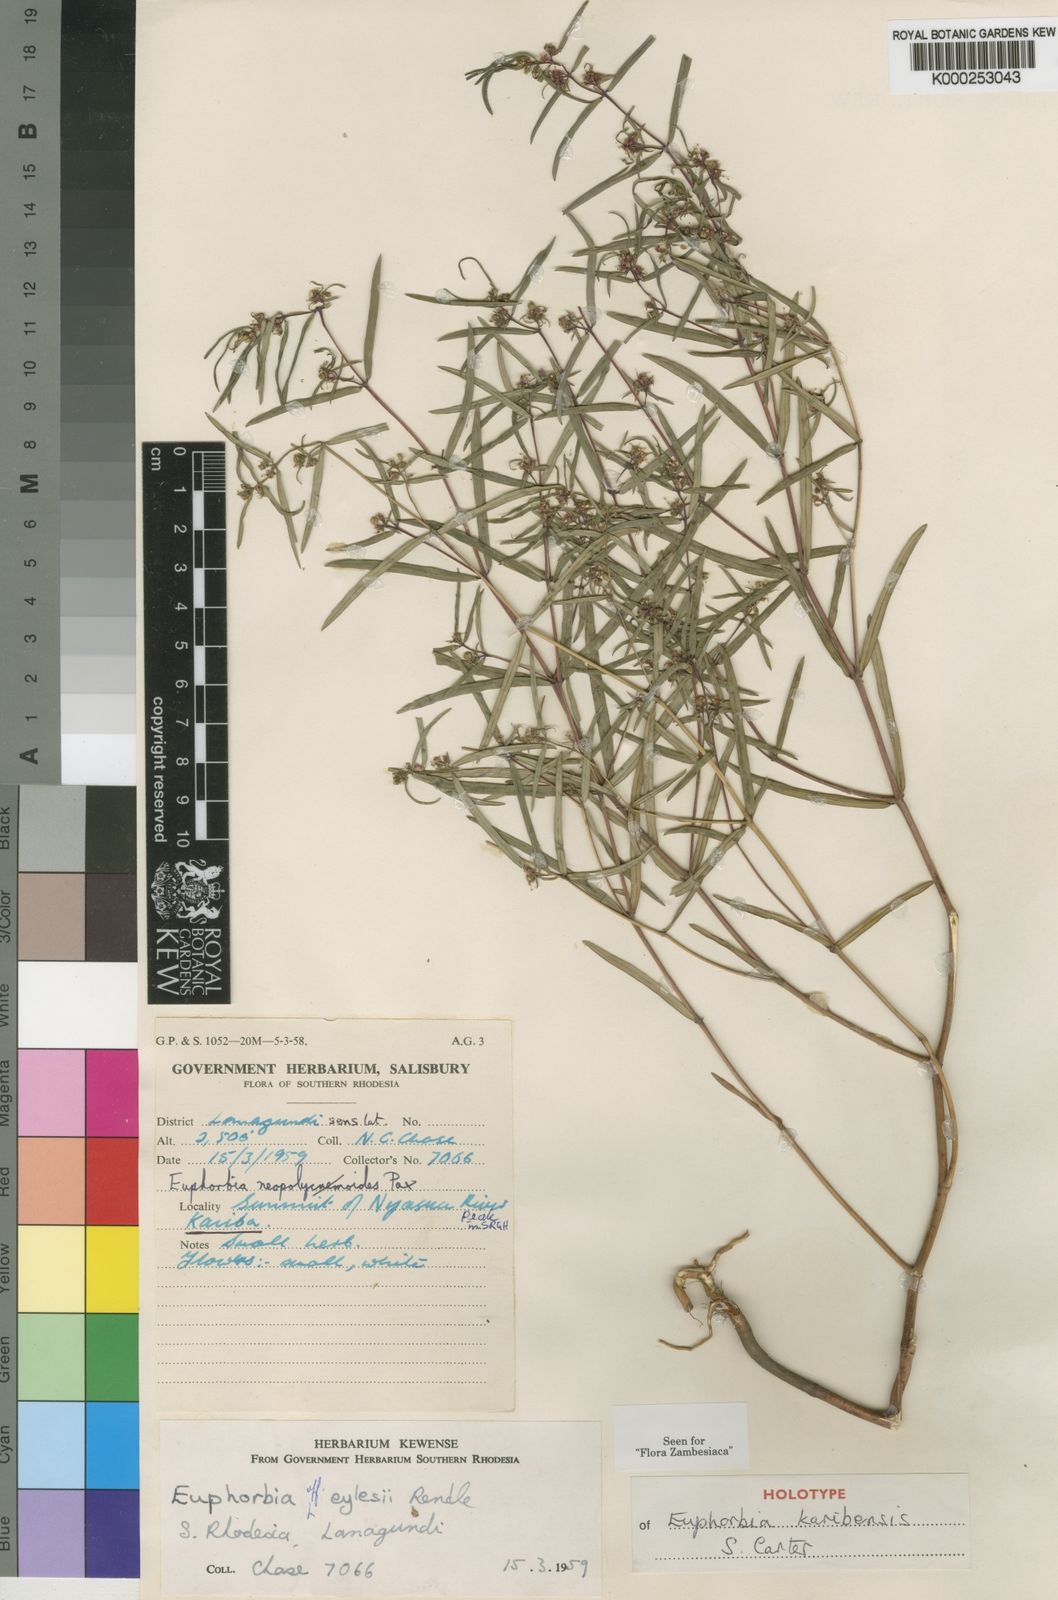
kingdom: Plantae
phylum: Tracheophyta
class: Magnoliopsida
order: Malpighiales
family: Euphorbiaceae
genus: Euphorbia
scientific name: Euphorbia karibensis
